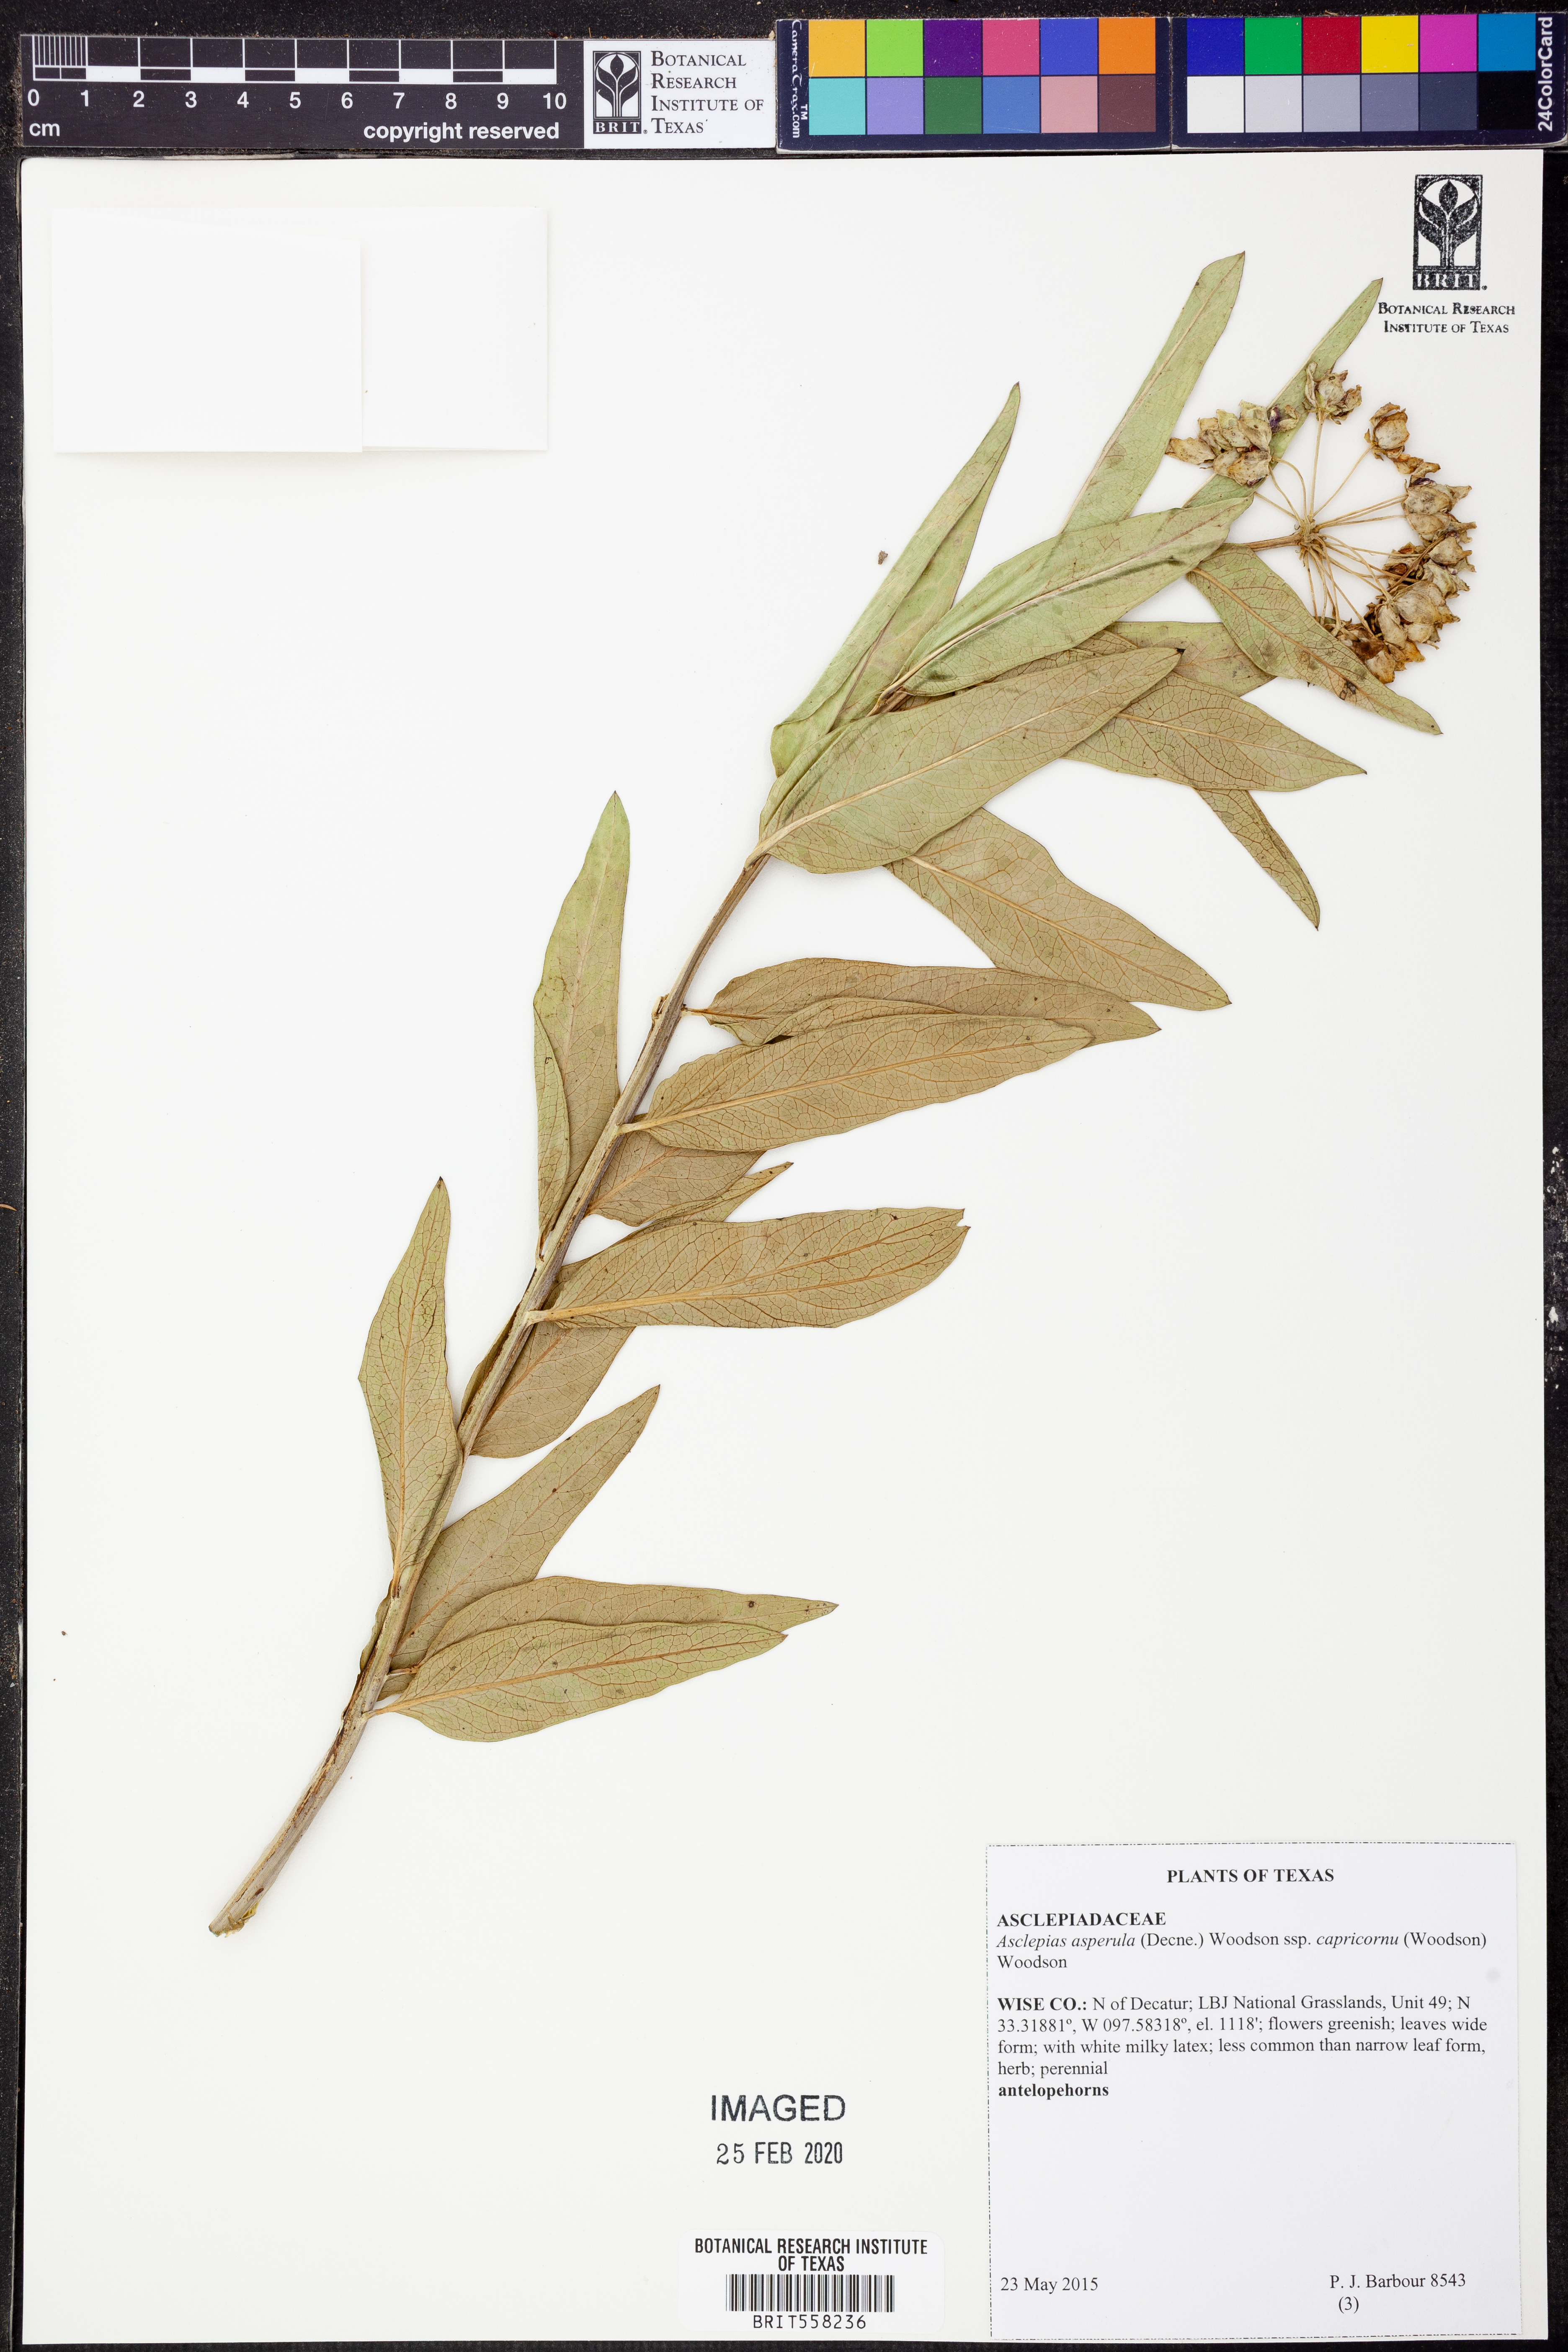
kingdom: Plantae
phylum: Tracheophyta
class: Magnoliopsida
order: Gentianales
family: Apocynaceae
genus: Asclepias
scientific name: Asclepias asperula
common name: Antelope horns
